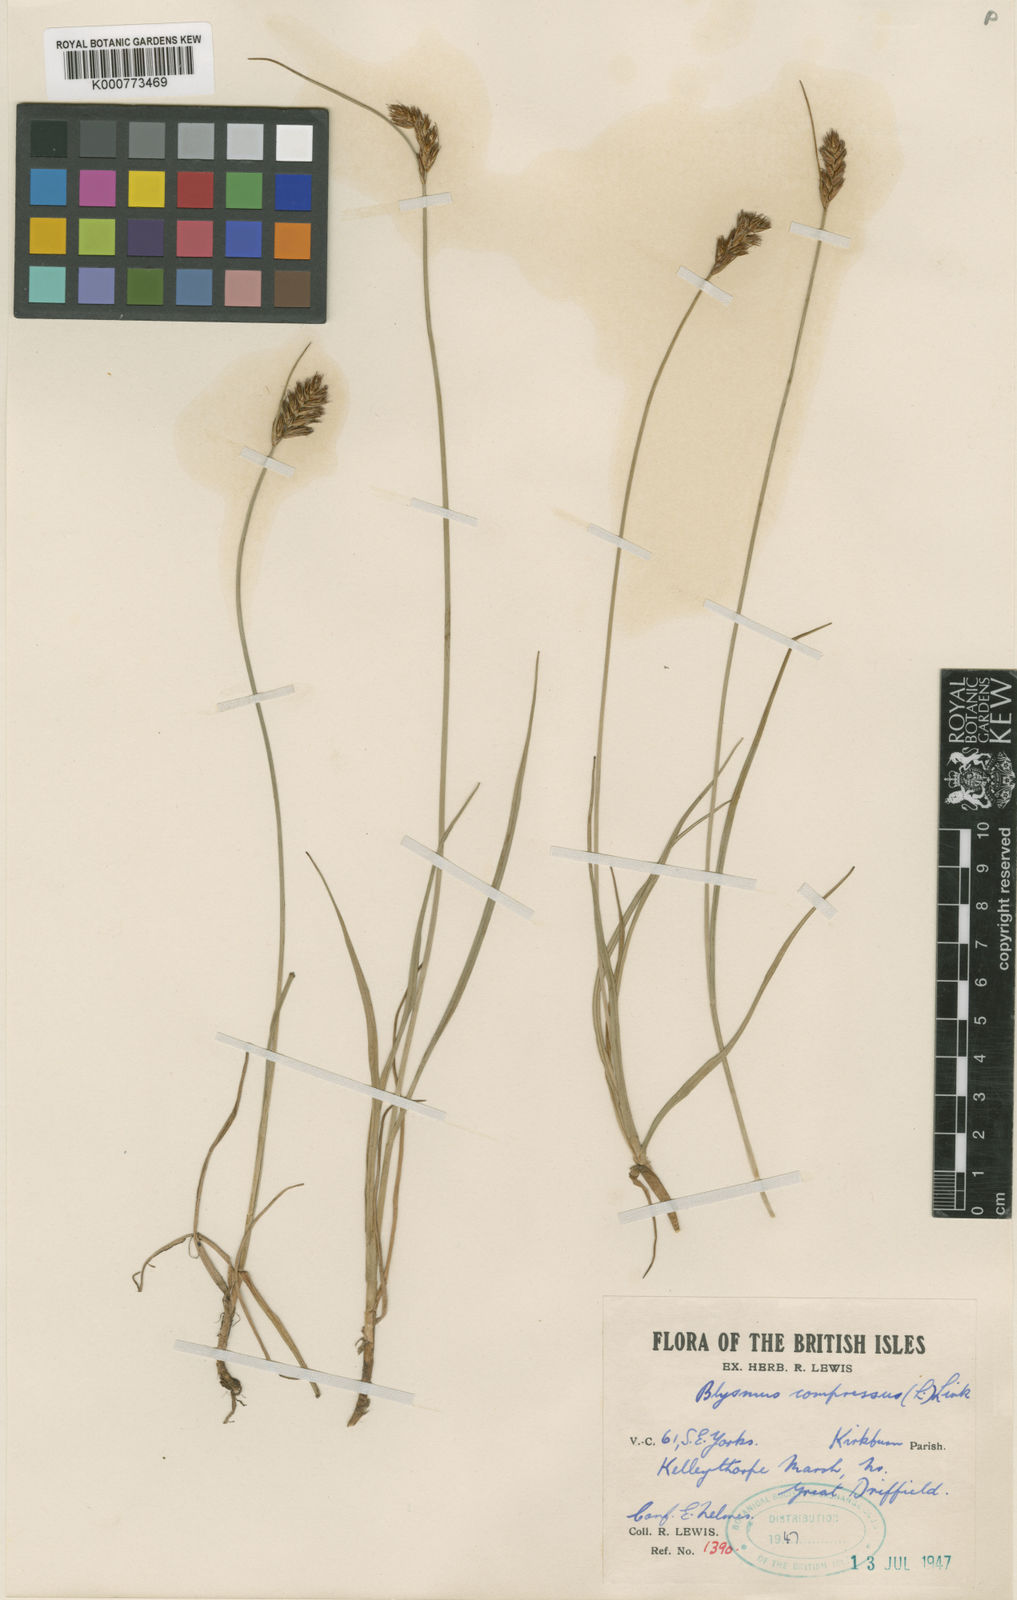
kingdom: Plantae
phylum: Tracheophyta
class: Liliopsida
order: Poales
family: Cyperaceae
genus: Blysmus
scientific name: Blysmus compressus
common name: Flat-sedge
